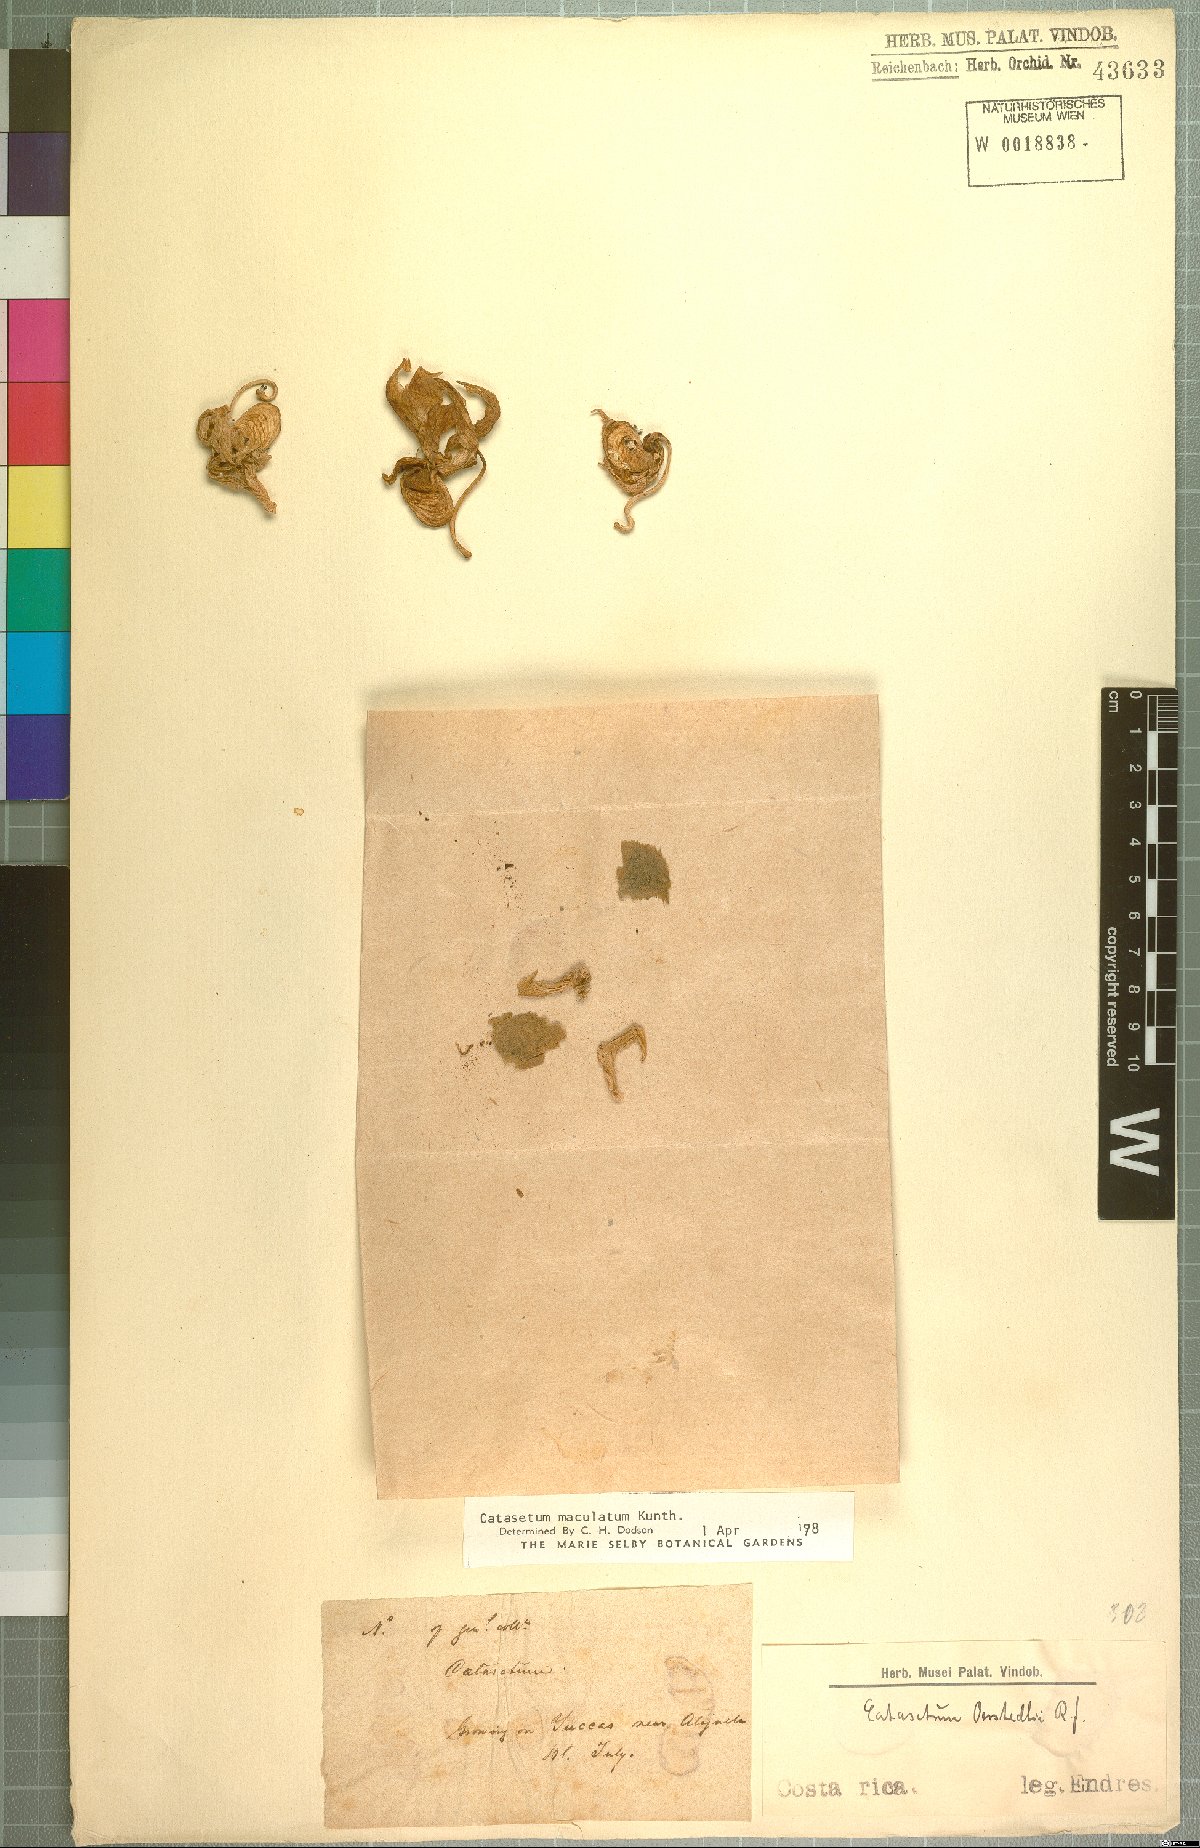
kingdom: Plantae
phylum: Tracheophyta
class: Liliopsida
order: Asparagales
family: Orchidaceae
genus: Catasetum
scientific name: Catasetum maculatum
